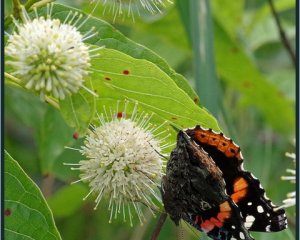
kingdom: Animalia
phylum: Arthropoda
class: Insecta
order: Lepidoptera
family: Nymphalidae
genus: Vanessa
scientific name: Vanessa atalanta
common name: Red Admiral
